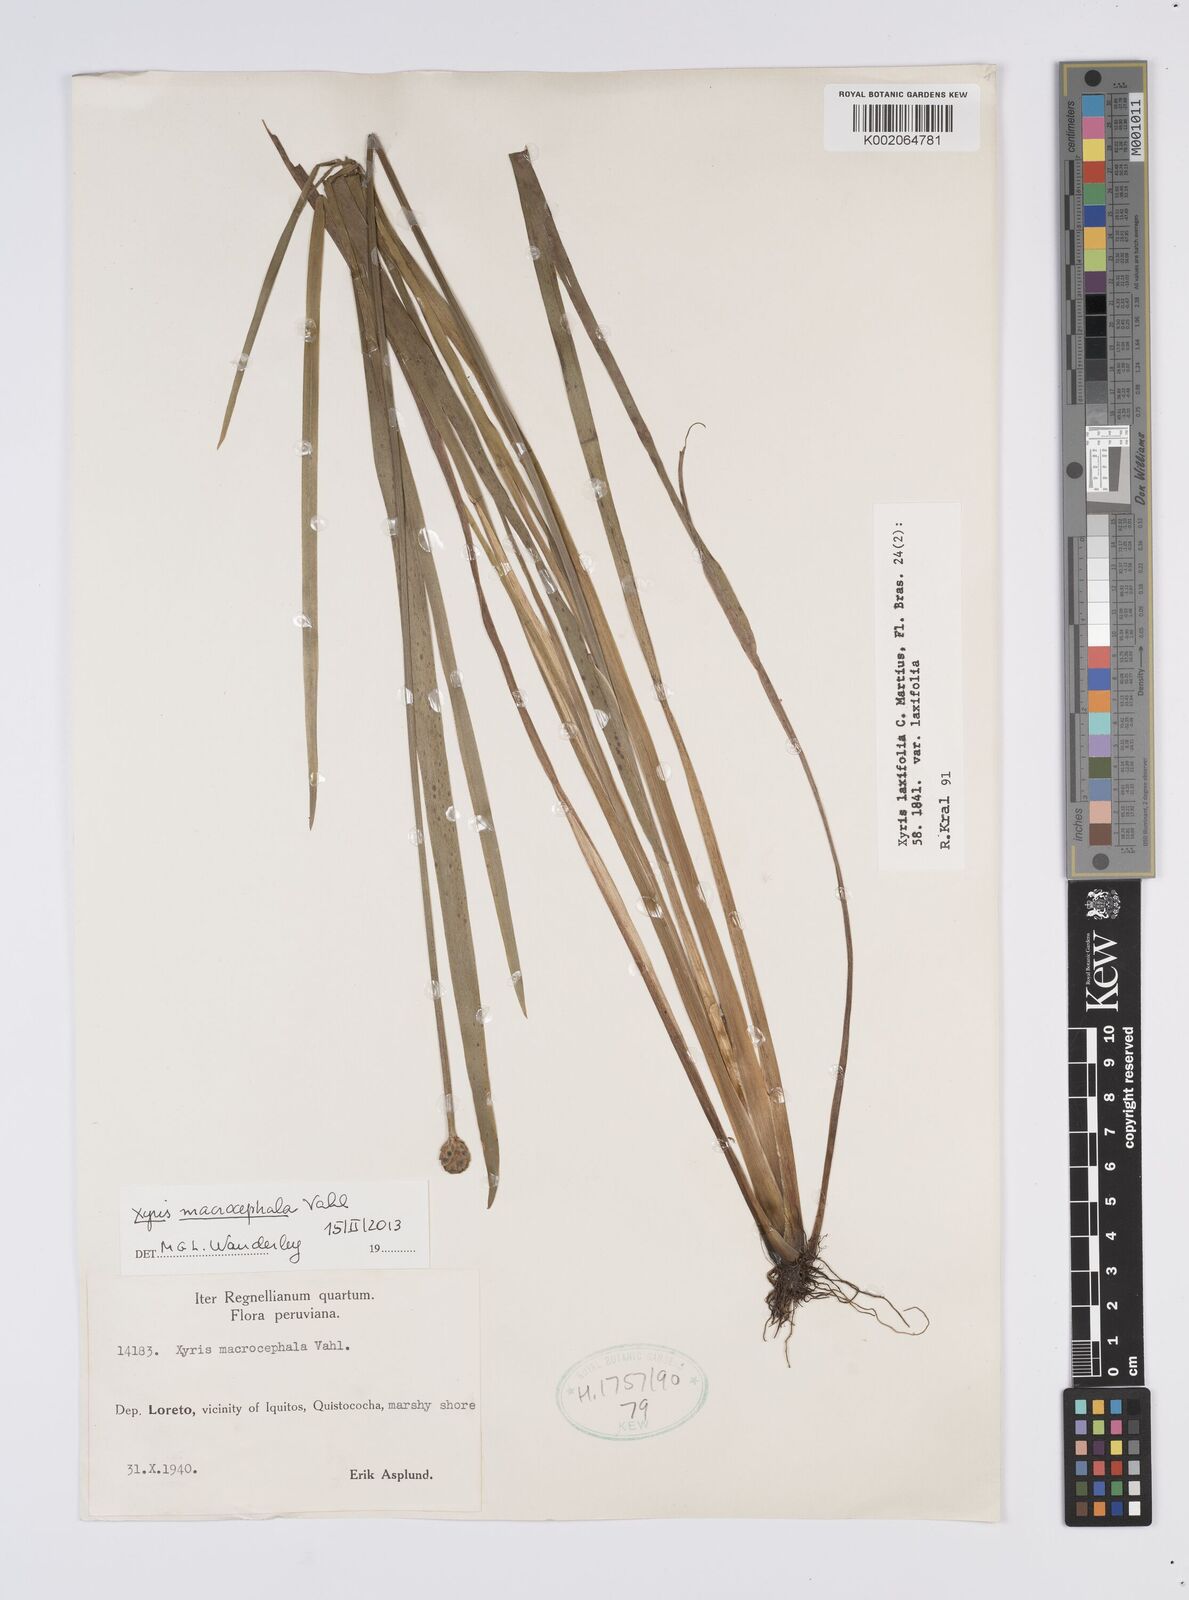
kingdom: Plantae
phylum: Tracheophyta
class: Liliopsida
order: Poales
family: Xyridaceae
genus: Xyris
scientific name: Xyris laxifolia
